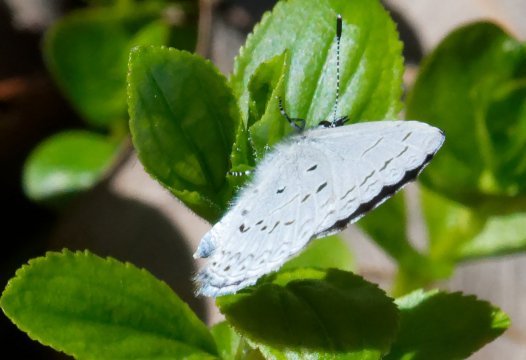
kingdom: Animalia
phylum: Arthropoda
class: Insecta
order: Lepidoptera
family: Lycaenidae
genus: Celastrina
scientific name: Celastrina serotina
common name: Cherry Gall Azure
